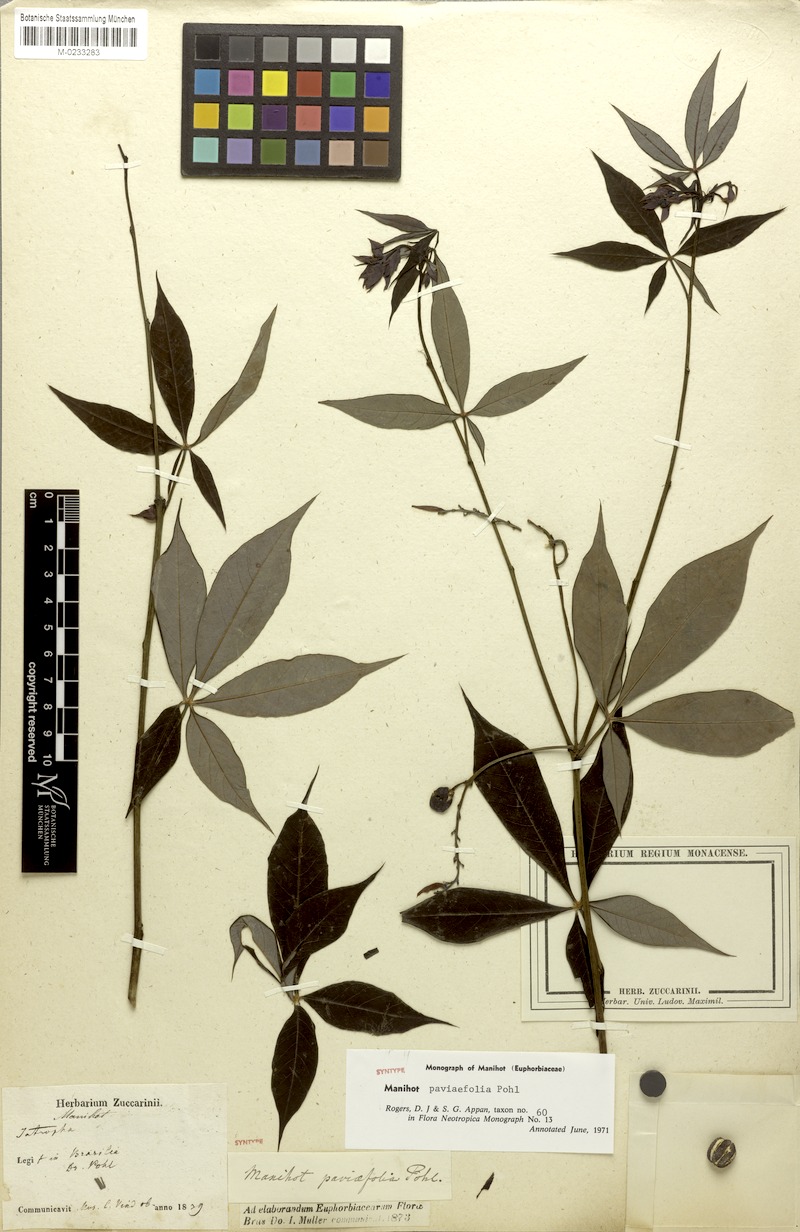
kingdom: Plantae
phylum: Tracheophyta
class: Magnoliopsida
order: Malpighiales
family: Euphorbiaceae
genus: Manihot
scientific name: Manihot paviifolia
